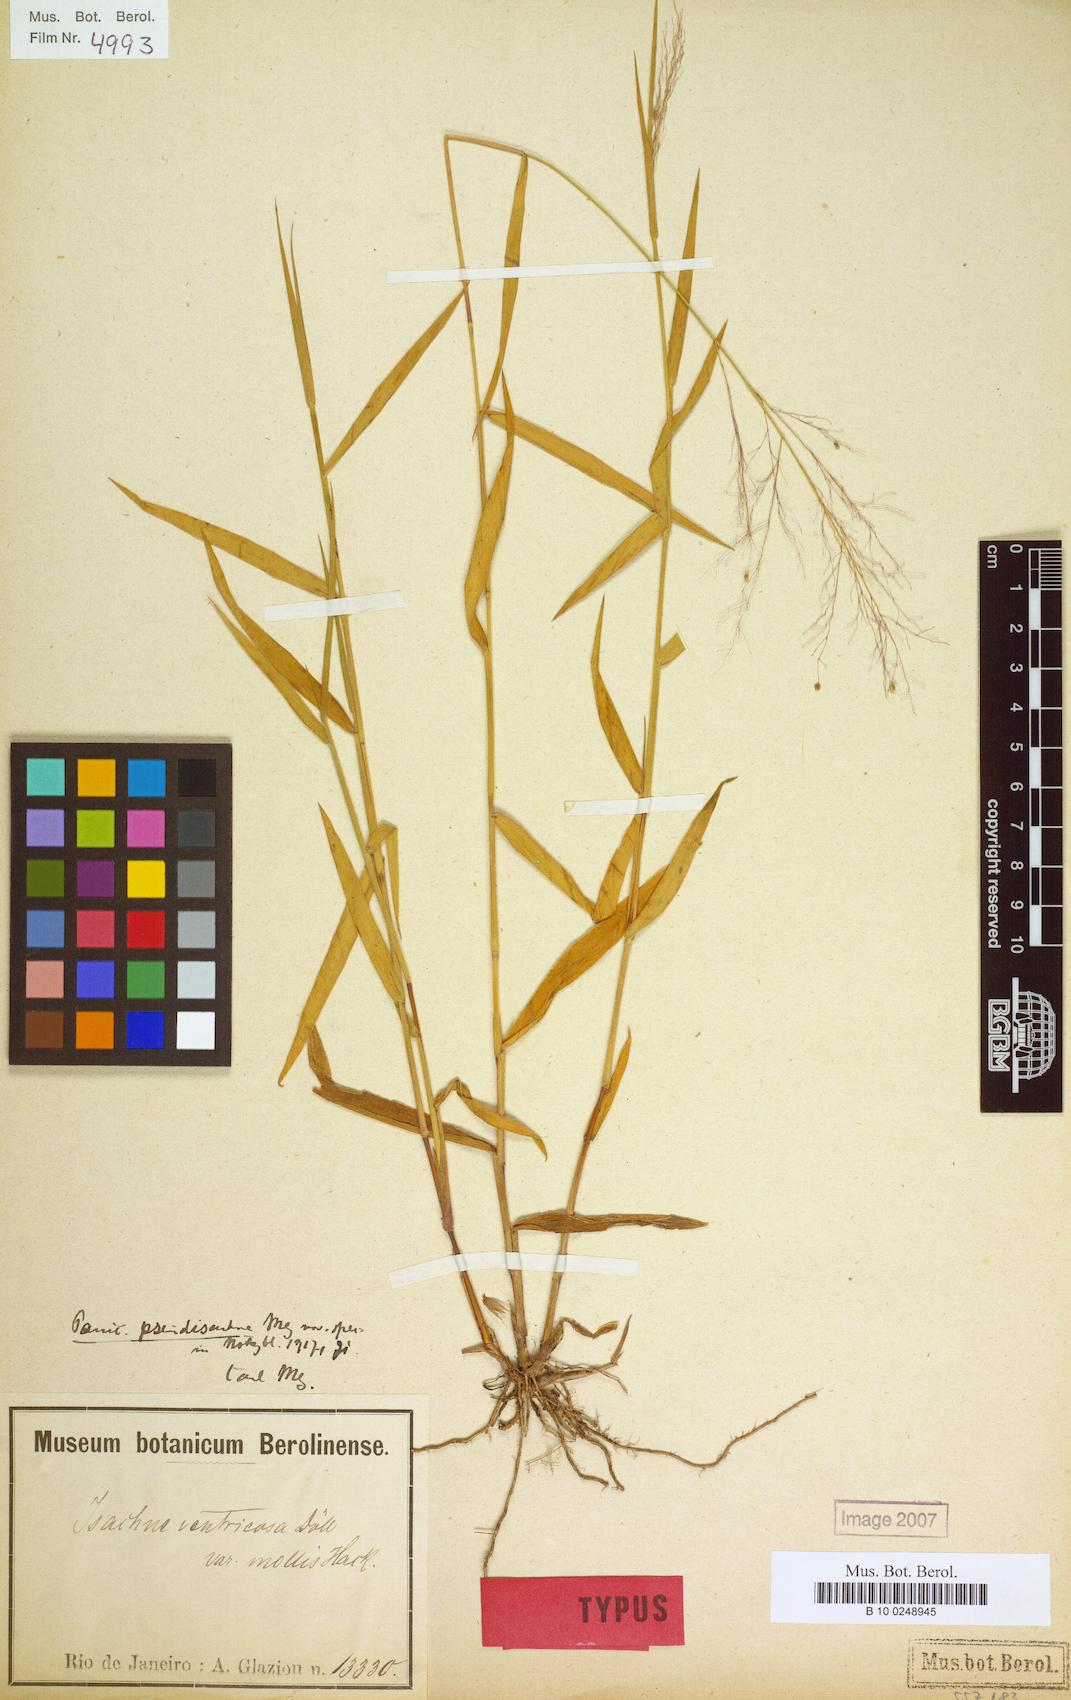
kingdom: Plantae
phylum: Tracheophyta
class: Liliopsida
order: Poales
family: Poaceae
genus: Trichanthecium
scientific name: Trichanthecium pseudisachne
